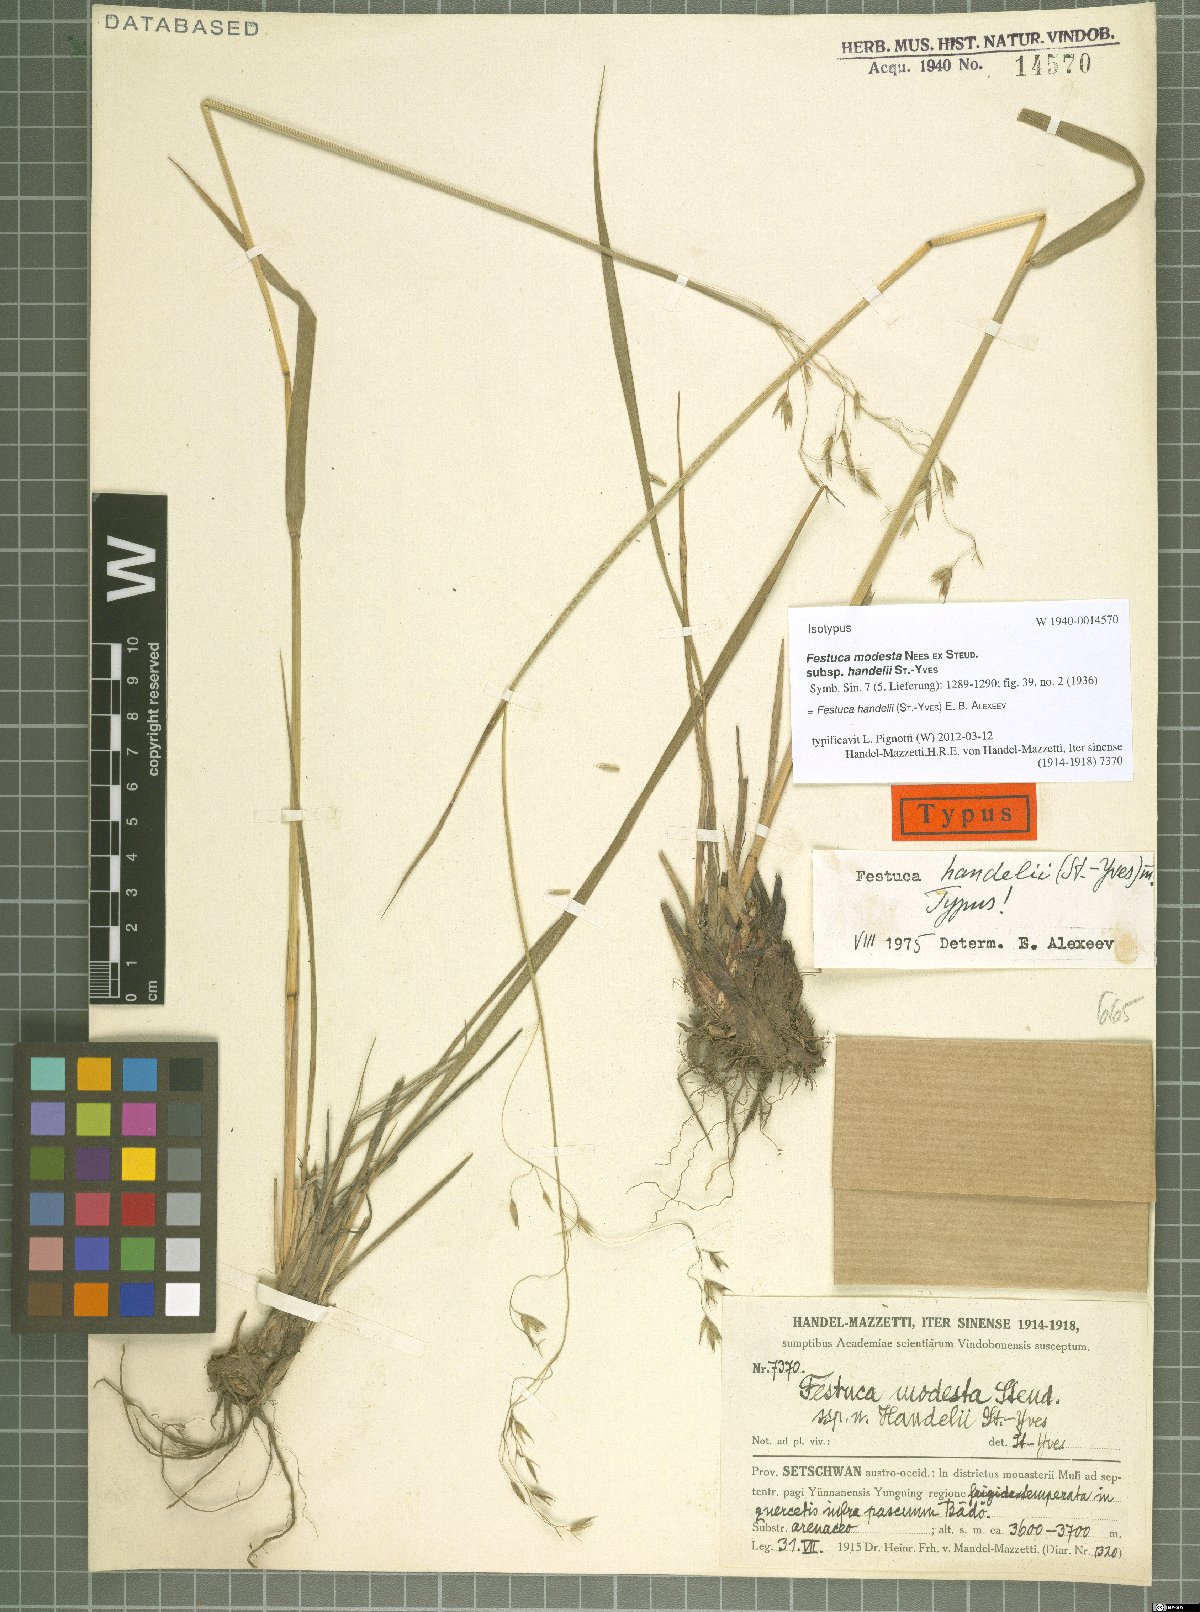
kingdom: Plantae
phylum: Tracheophyta
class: Liliopsida
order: Poales
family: Poaceae
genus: Festuca
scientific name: Festuca modesta
